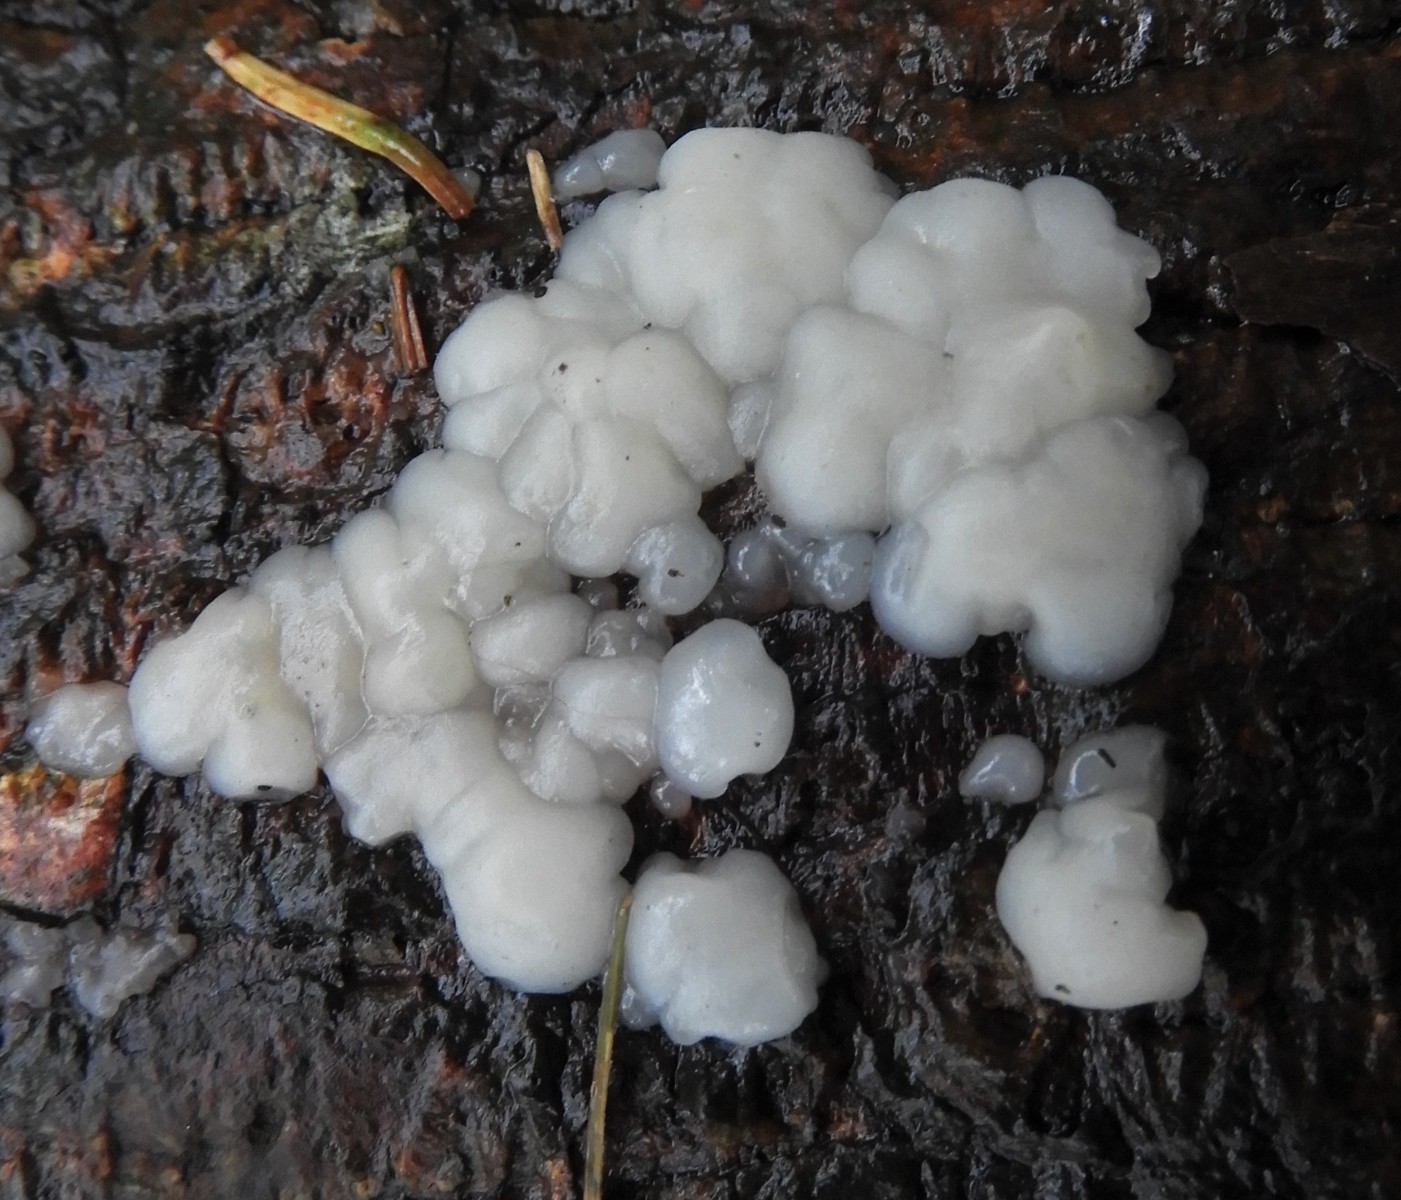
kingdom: Fungi
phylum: Basidiomycota
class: Agaricomycetes
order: Auriculariales
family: Auriculariaceae
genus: Exidia
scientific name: Exidia thuretiana
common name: hvidlig bævretop
